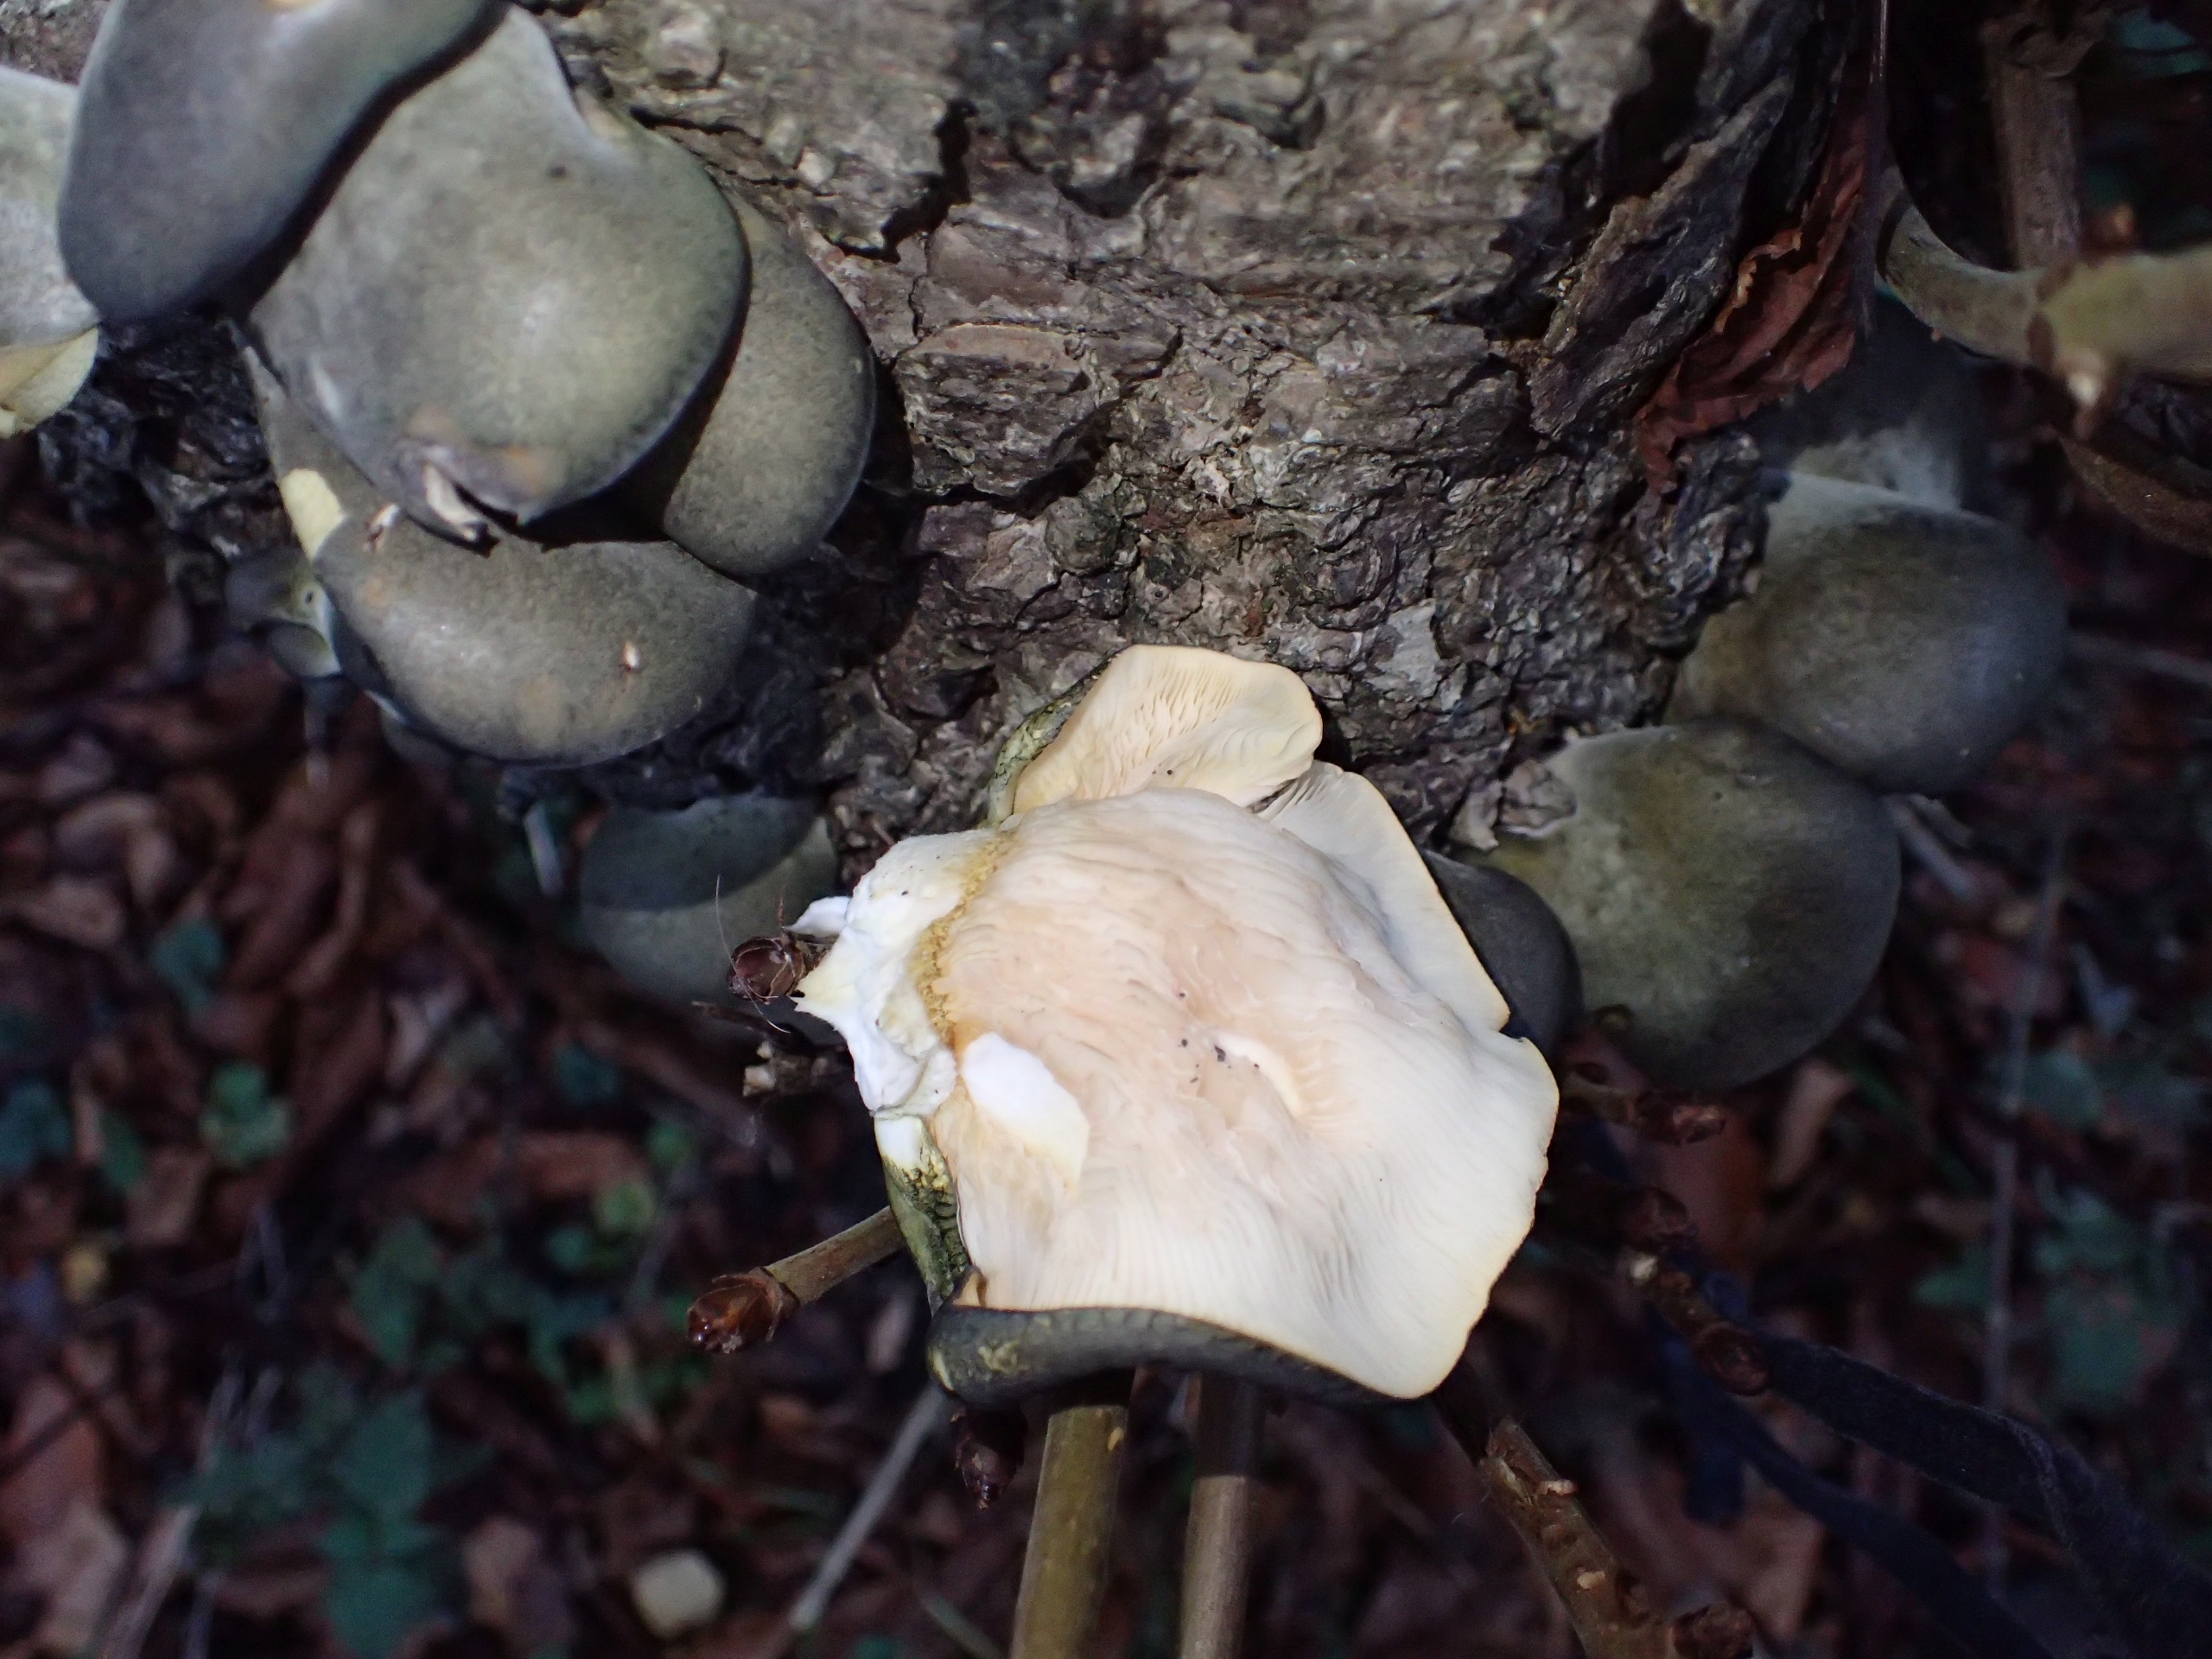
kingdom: Fungi
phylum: Basidiomycota
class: Agaricomycetes
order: Agaricales
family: Sarcomyxaceae
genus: Sarcomyxa
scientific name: Sarcomyxa serotina
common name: Gummihat
